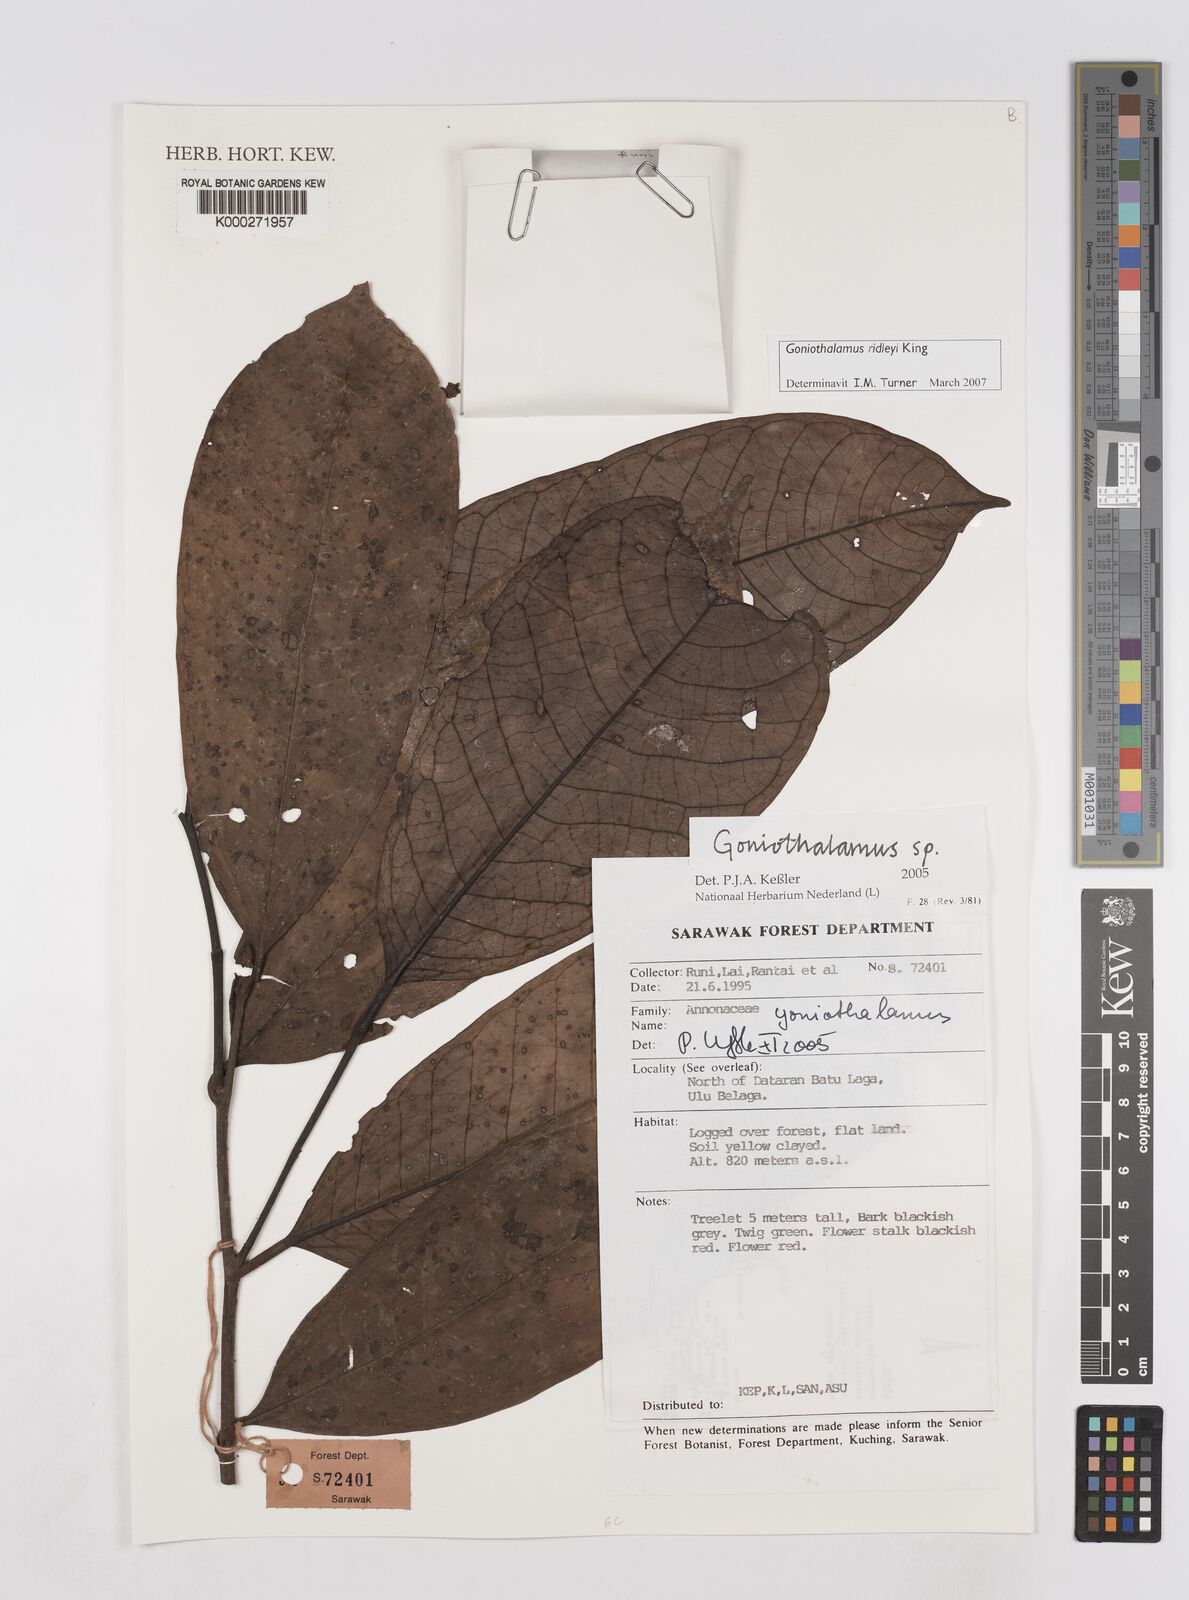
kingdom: Plantae
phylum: Tracheophyta
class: Magnoliopsida
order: Magnoliales
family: Annonaceae
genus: Goniothalamus
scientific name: Goniothalamus
